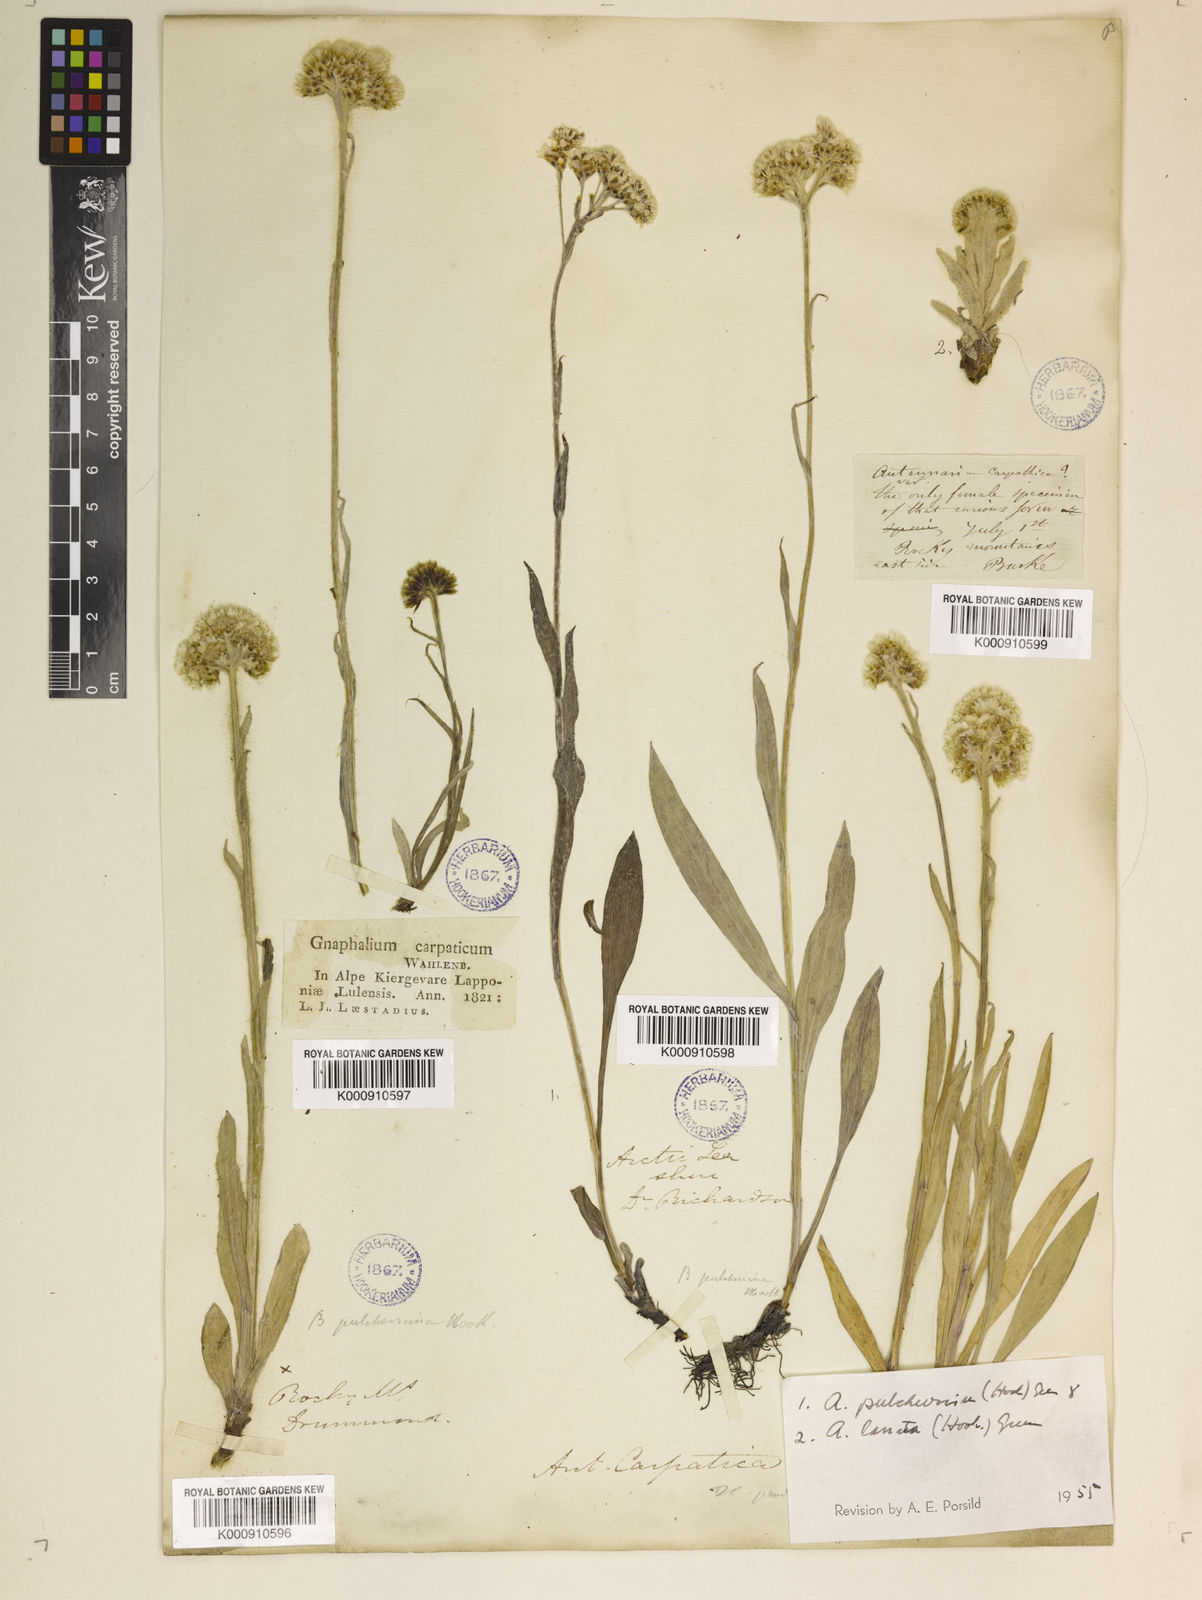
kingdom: Plantae
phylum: Tracheophyta
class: Magnoliopsida
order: Asterales
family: Asteraceae
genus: Antennaria
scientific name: Antennaria carpatica
